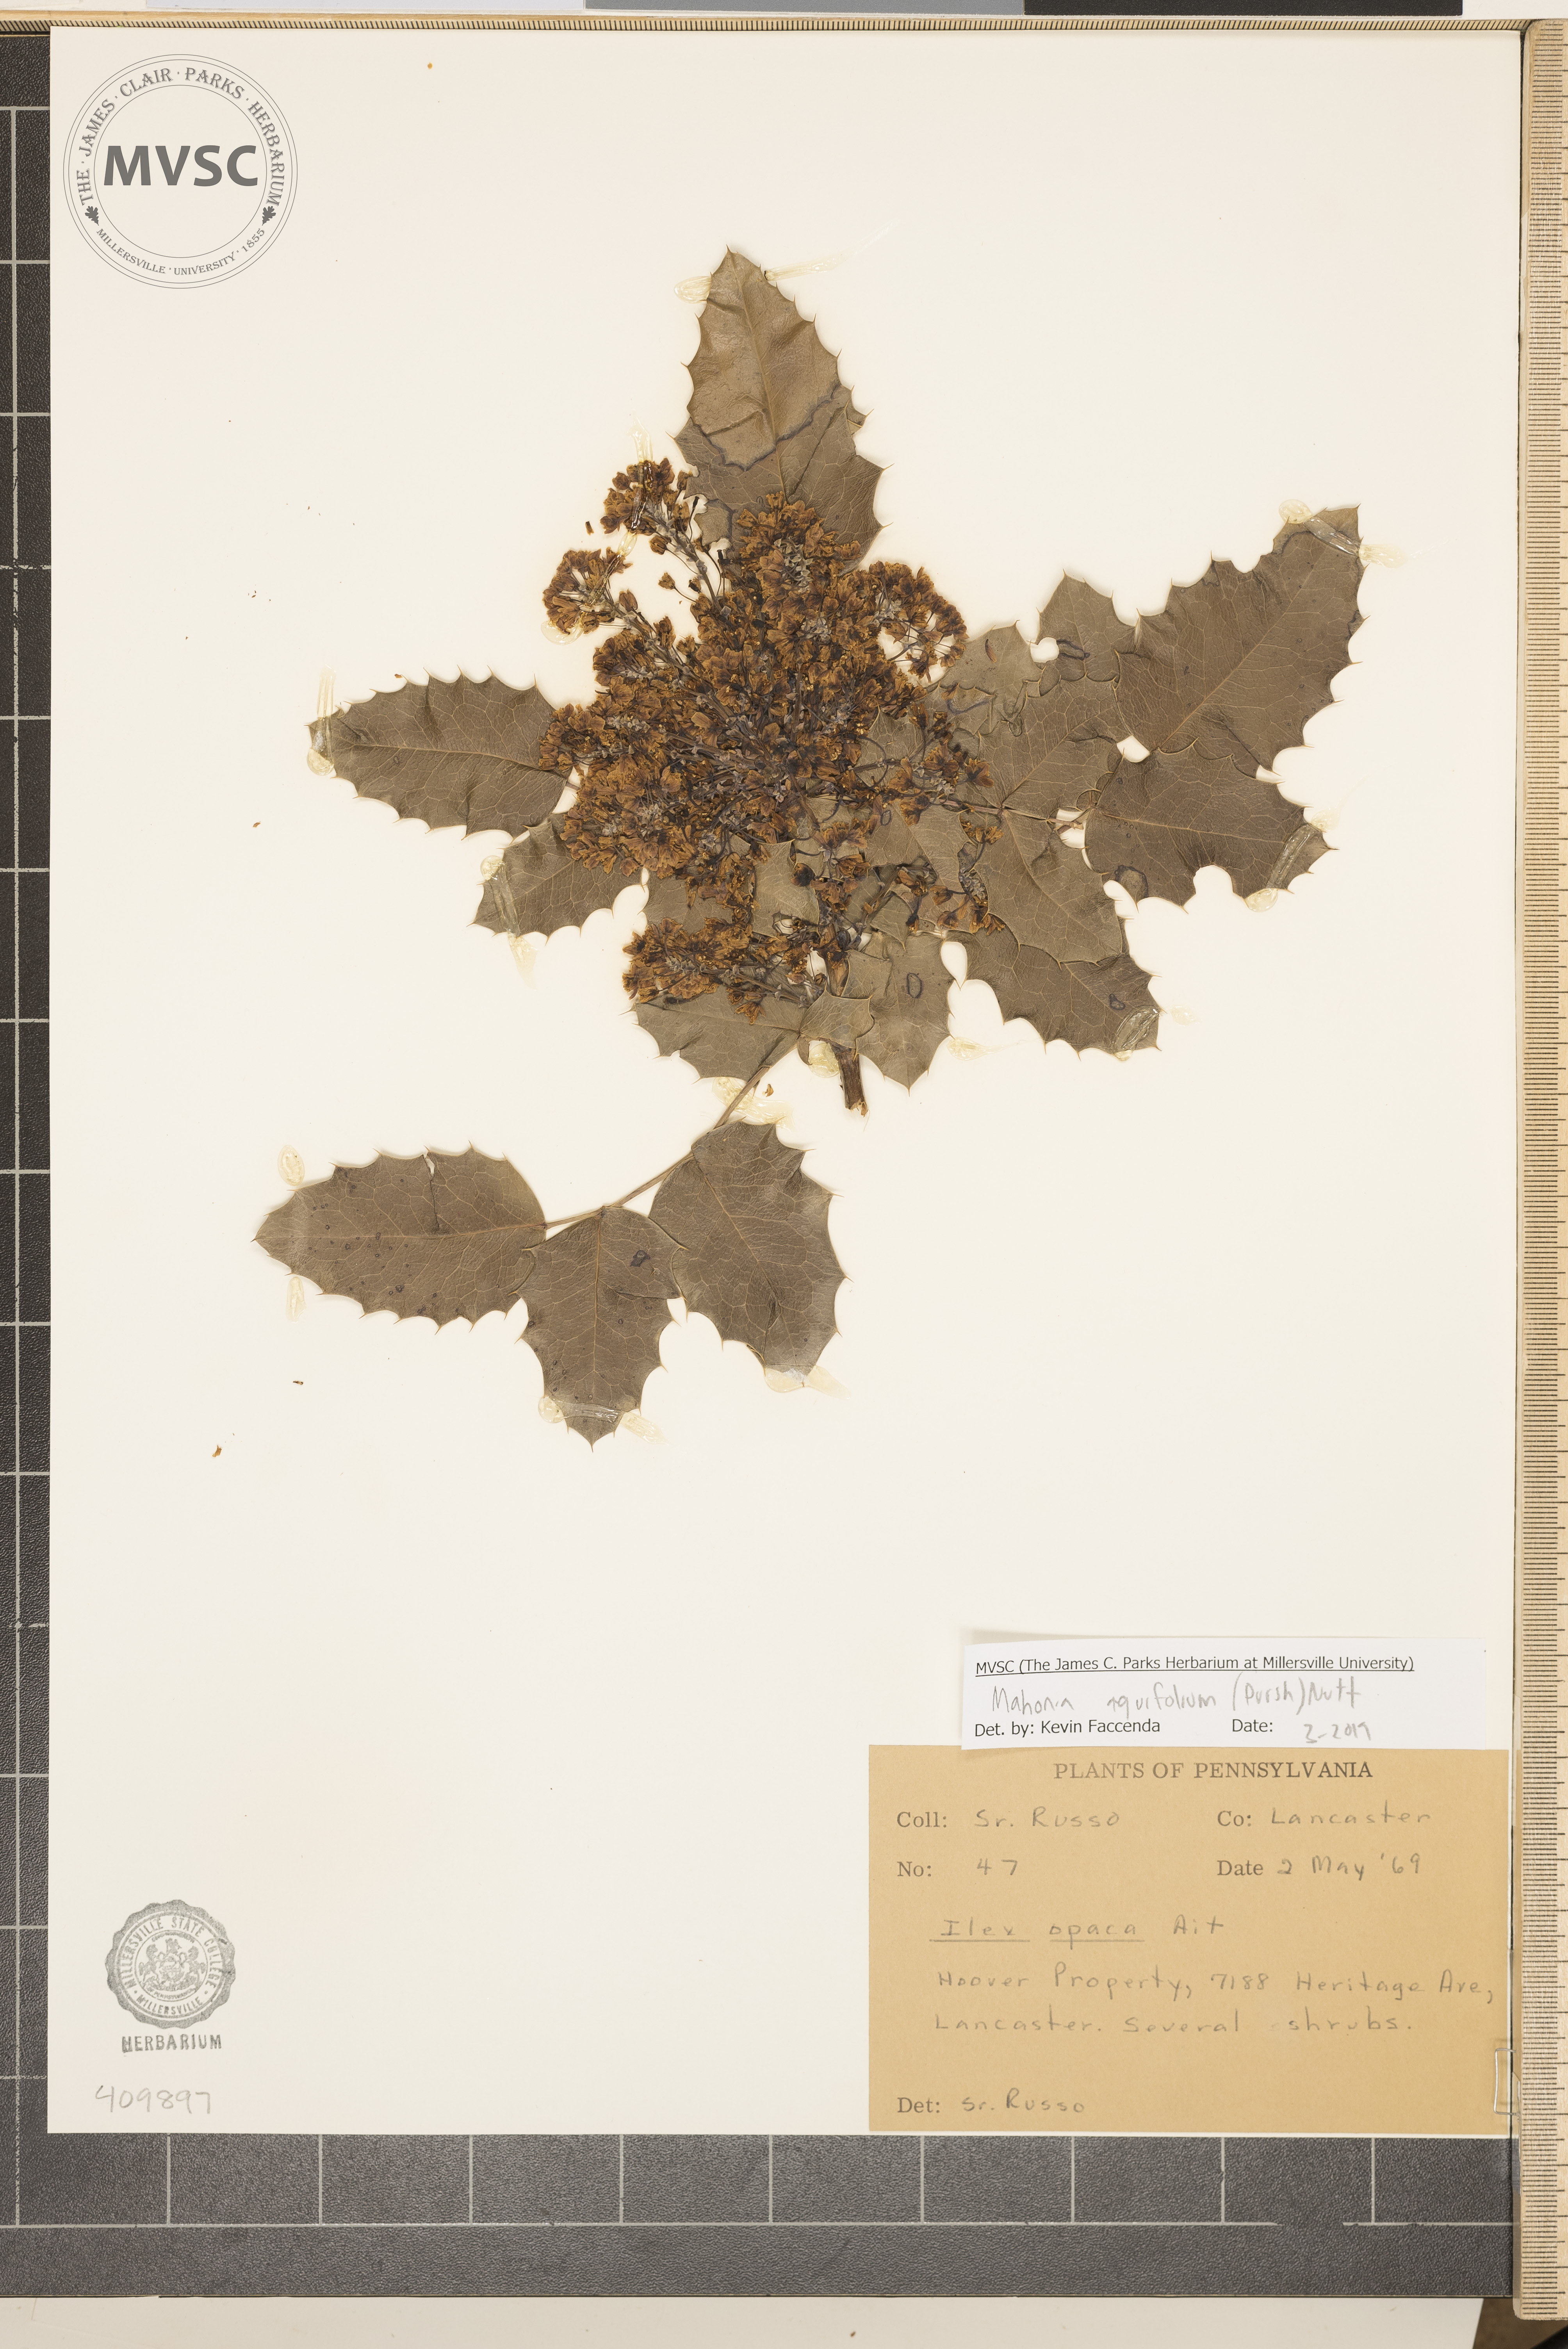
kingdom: Plantae
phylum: Tracheophyta
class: Magnoliopsida
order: Ranunculales
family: Berberidaceae
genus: Mahonia
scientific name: Mahonia aquifolium
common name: Oregon-grape
